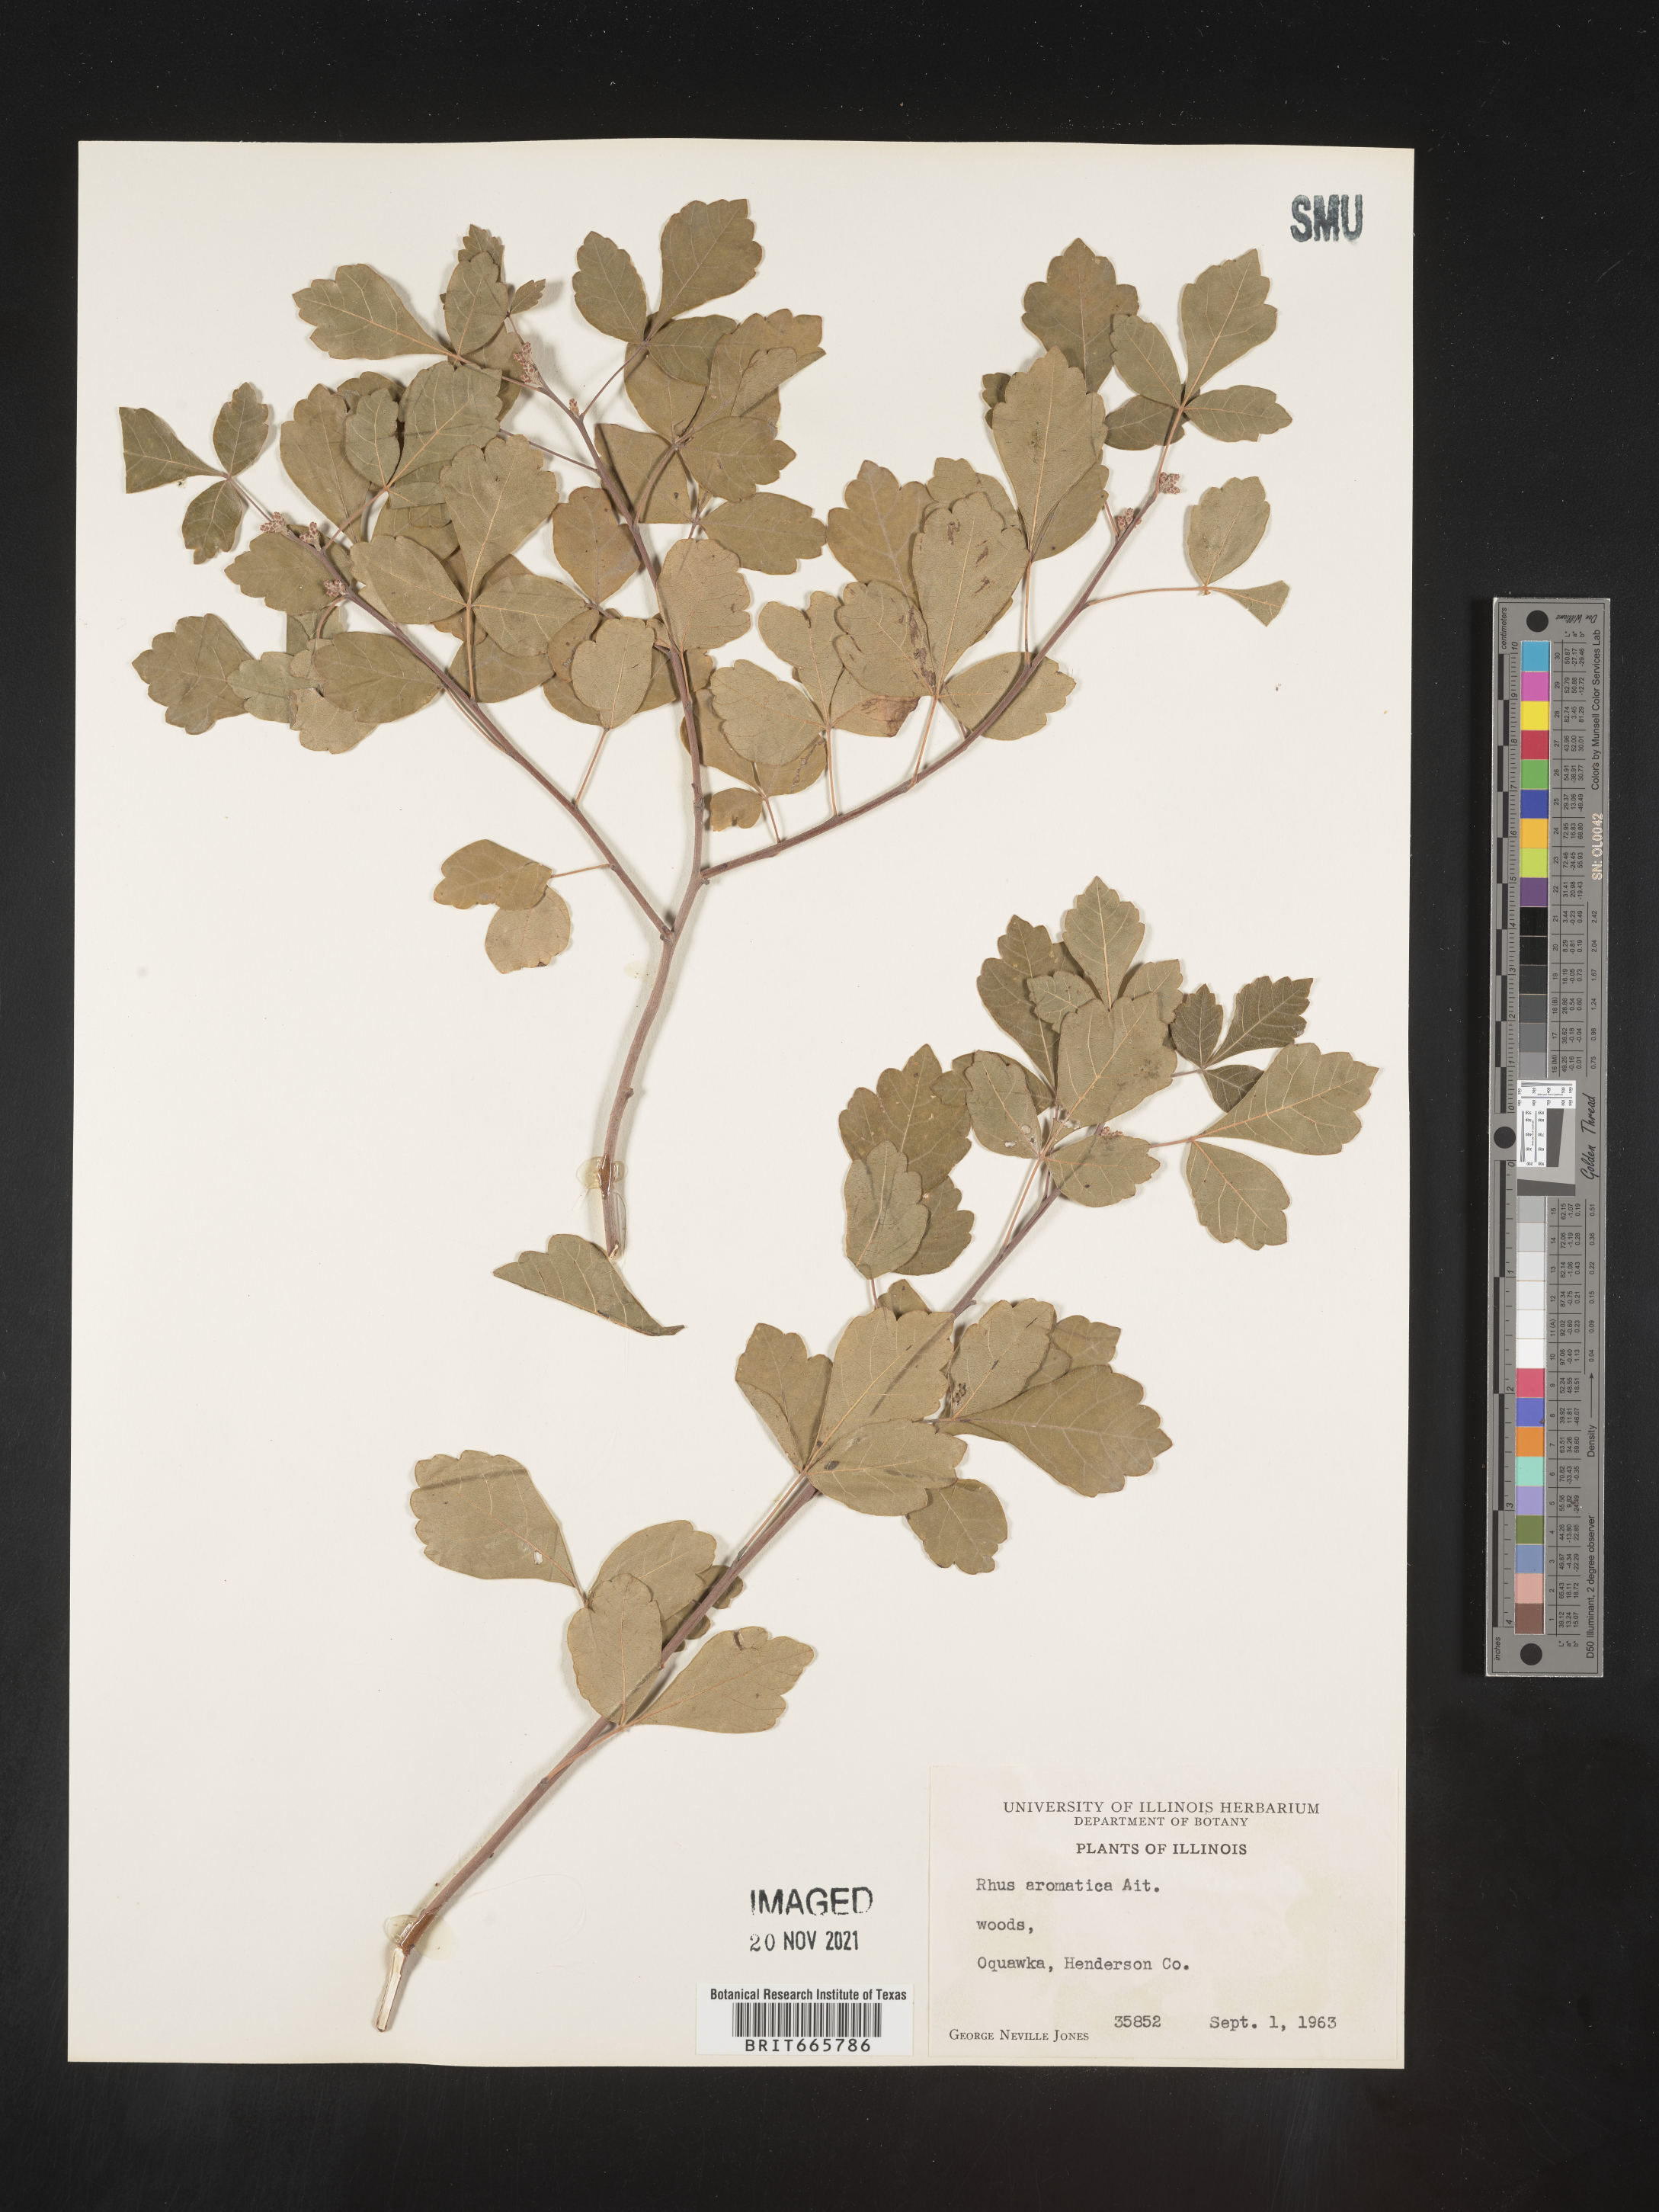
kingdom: Plantae
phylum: Tracheophyta
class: Magnoliopsida
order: Sapindales
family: Anacardiaceae
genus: Rhus
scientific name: Rhus aromatica
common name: Aromatic sumac
